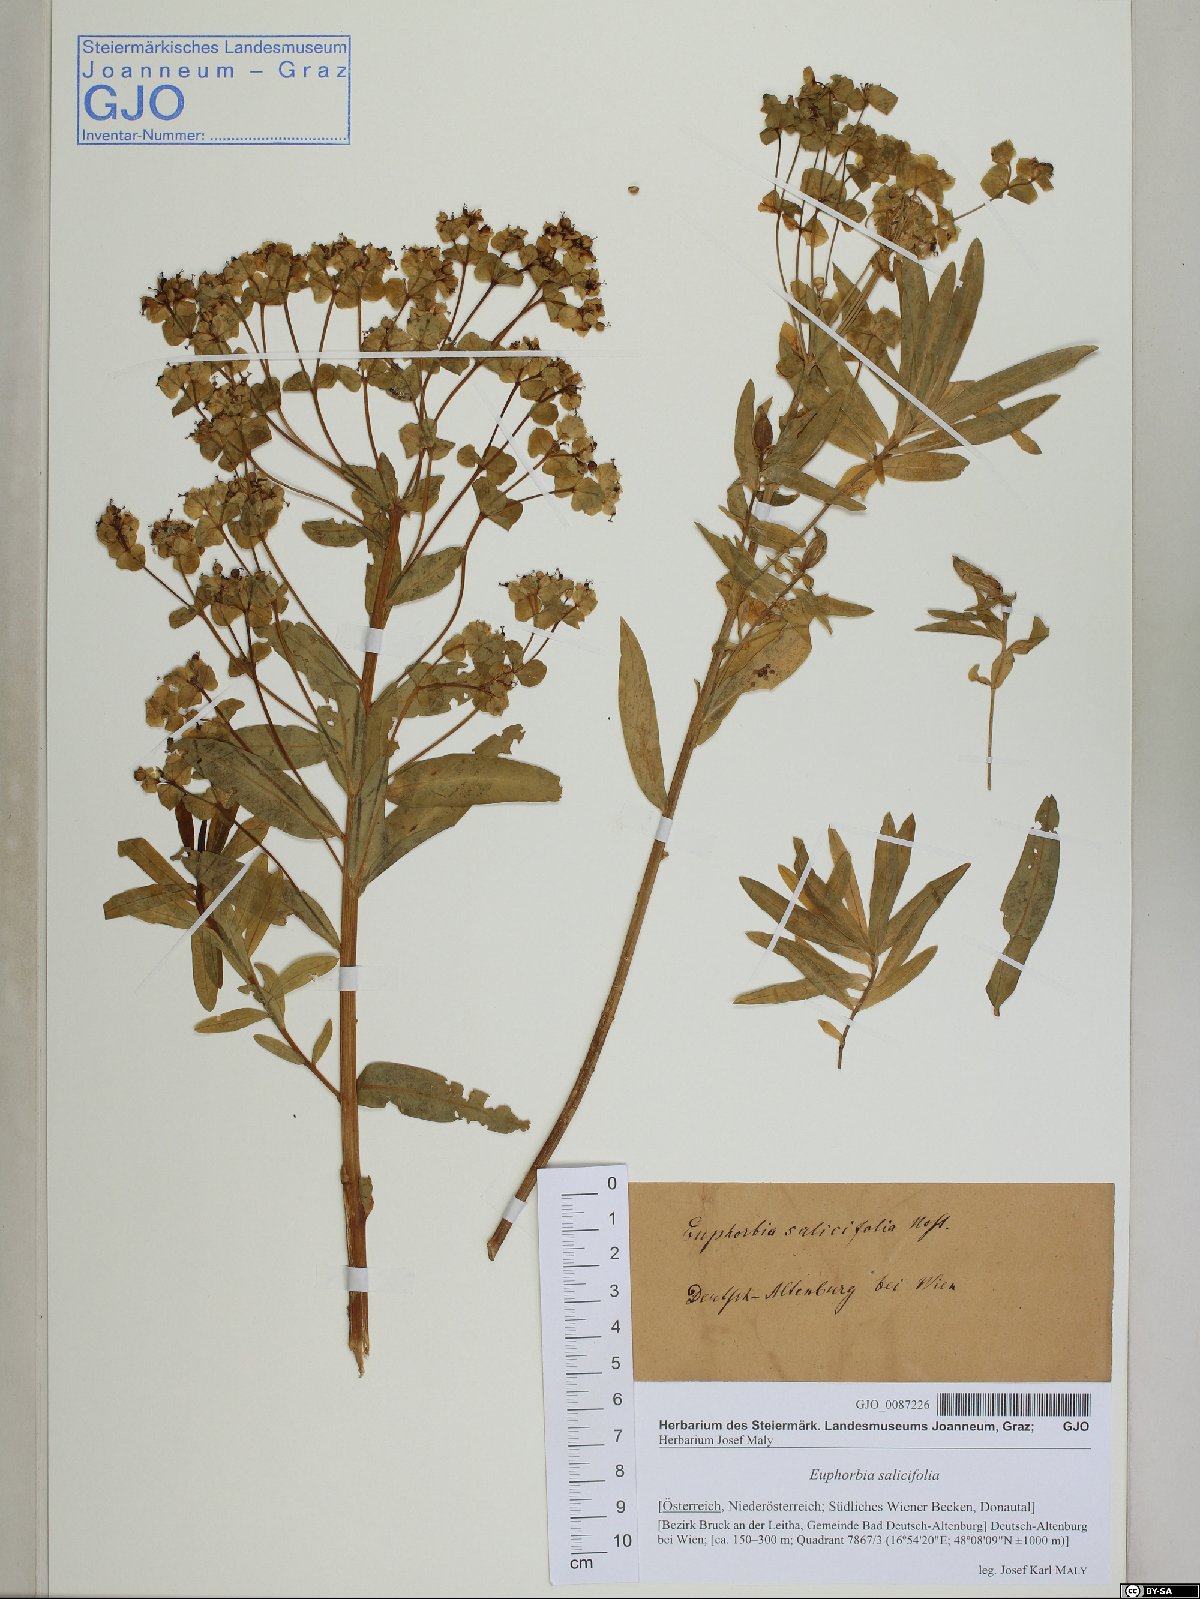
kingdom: Plantae
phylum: Tracheophyta
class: Magnoliopsida
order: Malpighiales
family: Euphorbiaceae
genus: Euphorbia
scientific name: Euphorbia salicifolia
